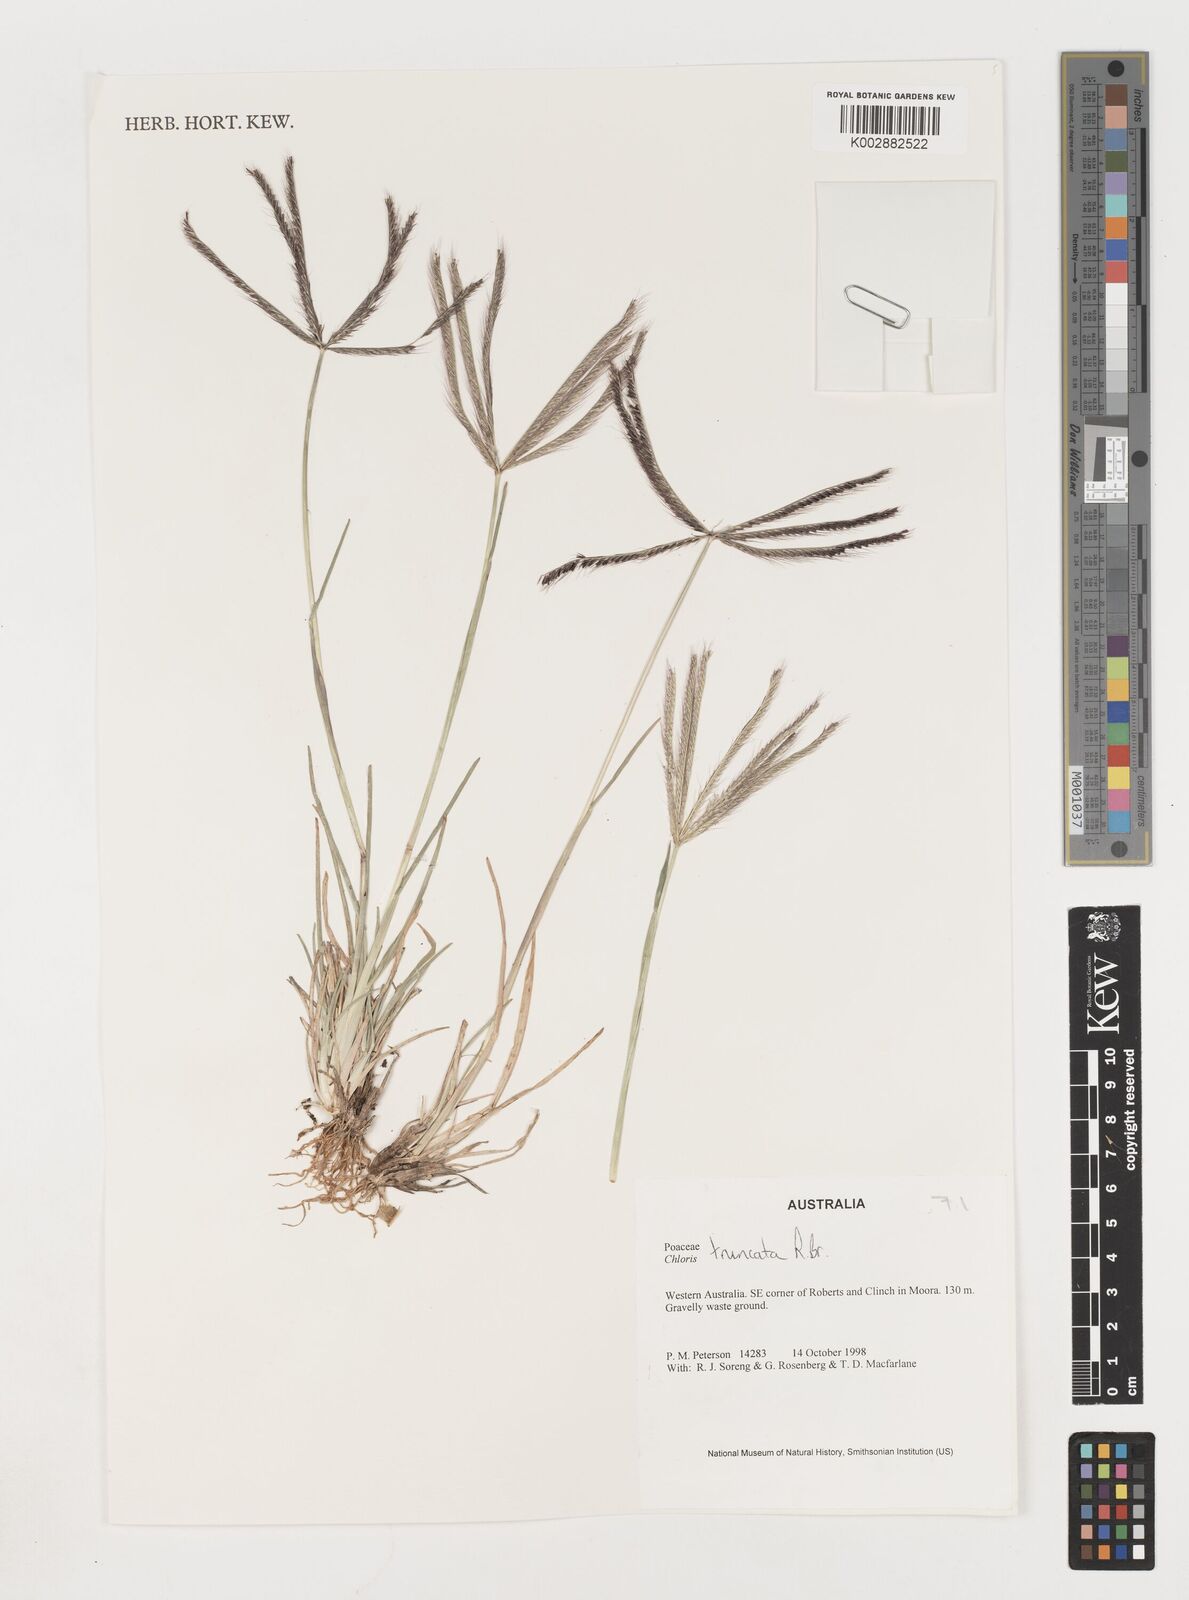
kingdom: Plantae
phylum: Tracheophyta
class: Liliopsida
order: Poales
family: Poaceae
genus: Chloris
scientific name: Chloris truncata
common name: Windmill-grass
